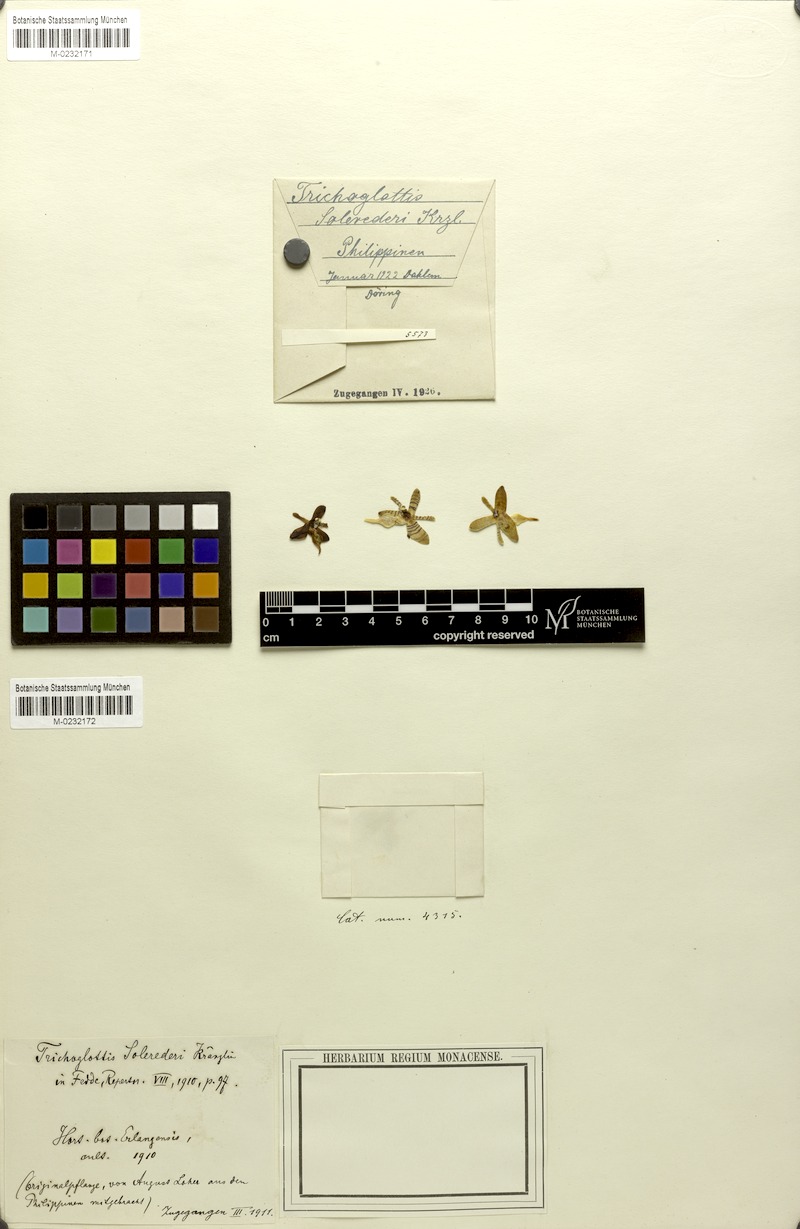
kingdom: Plantae
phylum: Tracheophyta
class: Liliopsida
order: Asparagales
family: Orchidaceae
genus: Trichoglottis
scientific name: Trichoglottis geminata
